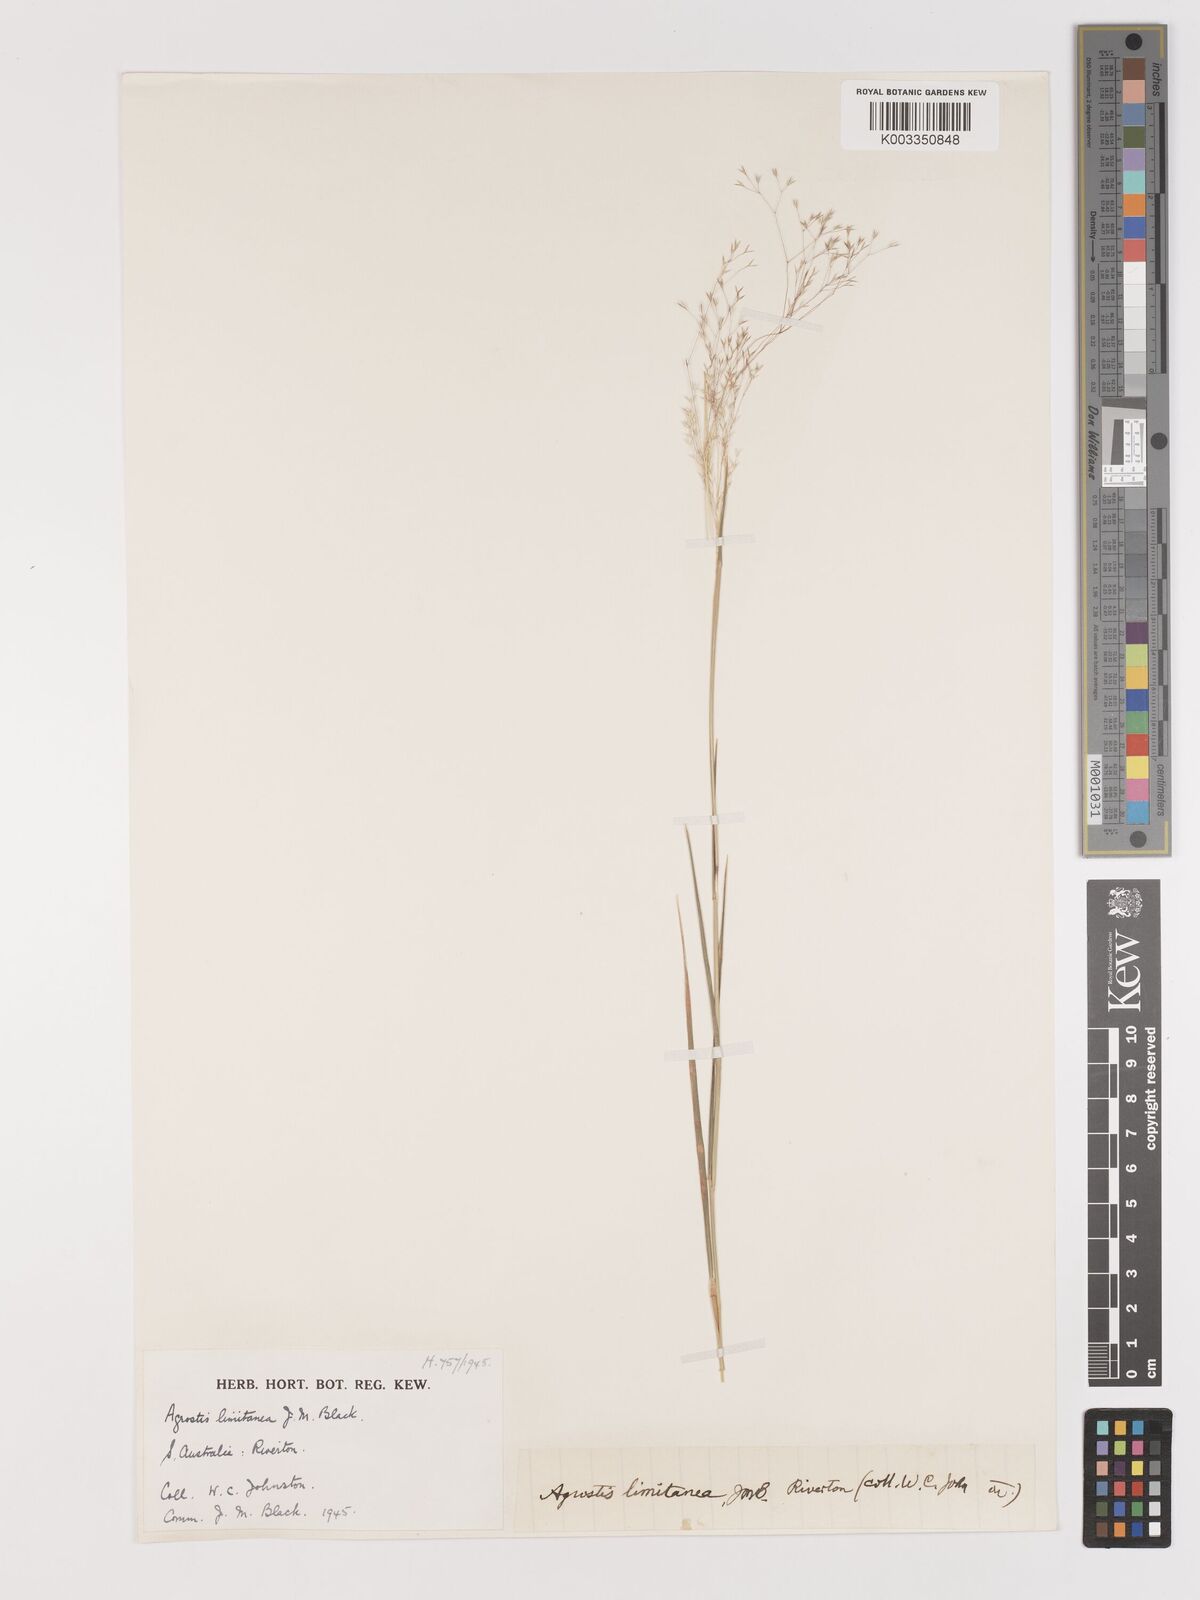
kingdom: Plantae
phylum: Tracheophyta
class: Liliopsida
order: Poales
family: Poaceae
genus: Lachnagrostis
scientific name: Lachnagrostis limitanea
